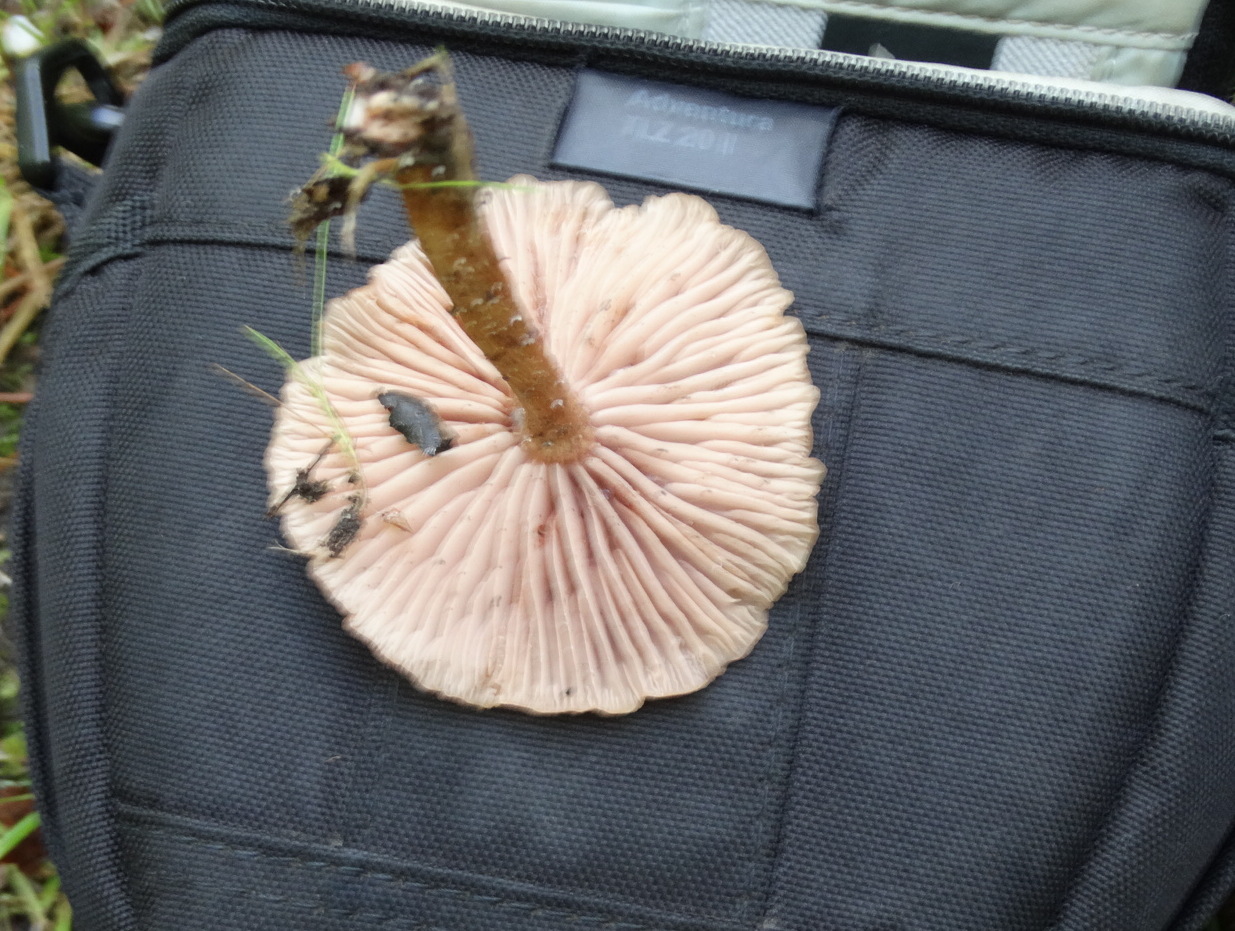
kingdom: Fungi
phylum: Basidiomycota
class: Agaricomycetes
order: Agaricales
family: Hydnangiaceae
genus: Laccaria
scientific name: Laccaria laccata
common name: rød ametysthat
